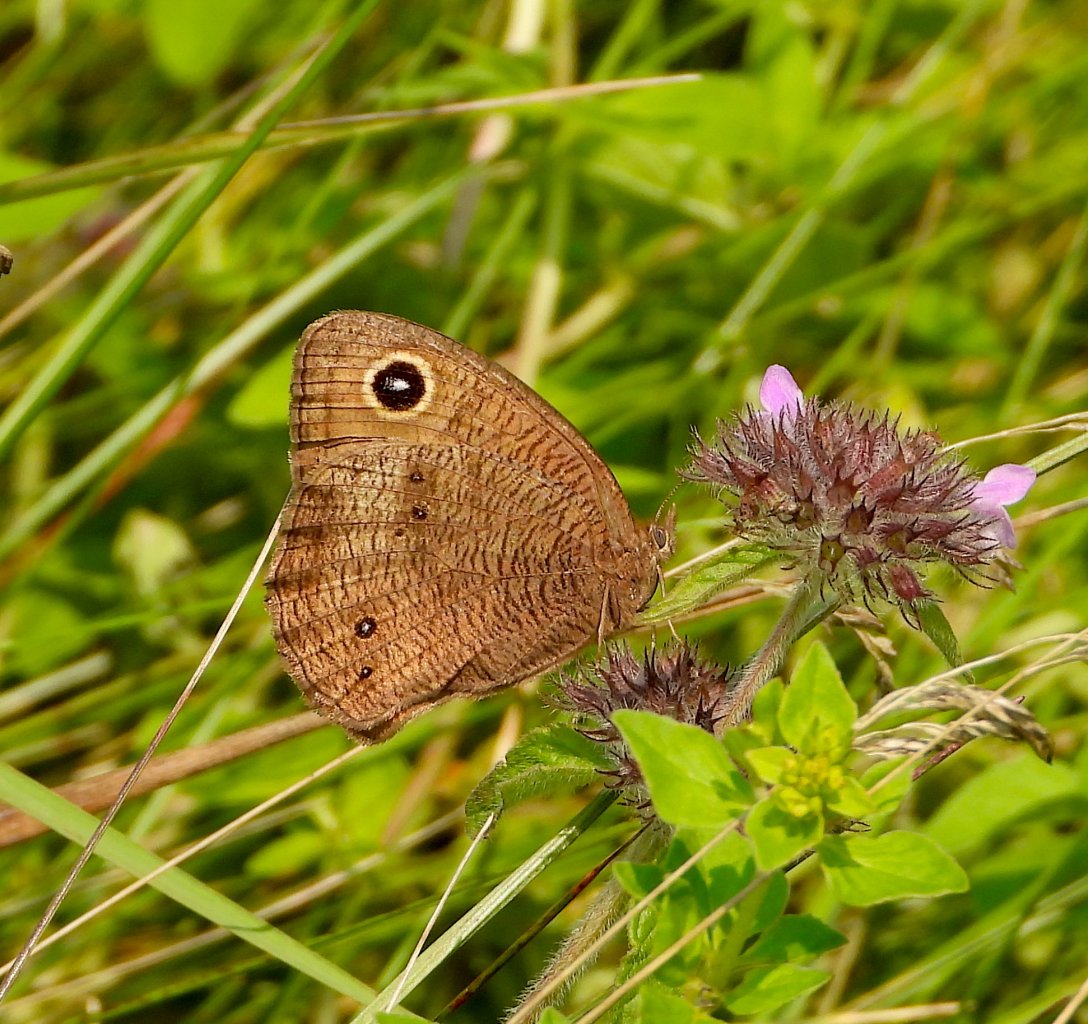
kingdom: Animalia
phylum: Arthropoda
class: Insecta
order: Lepidoptera
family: Nymphalidae
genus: Cercyonis
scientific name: Cercyonis pegala
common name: Common Wood-Nymph
